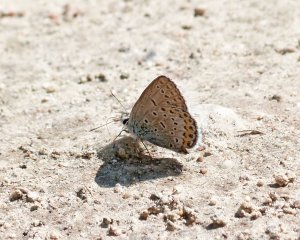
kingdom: Animalia
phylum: Arthropoda
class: Insecta
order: Lepidoptera
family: Lycaenidae
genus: Lycaeides
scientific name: Lycaeides melissa
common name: Melissa Blue
